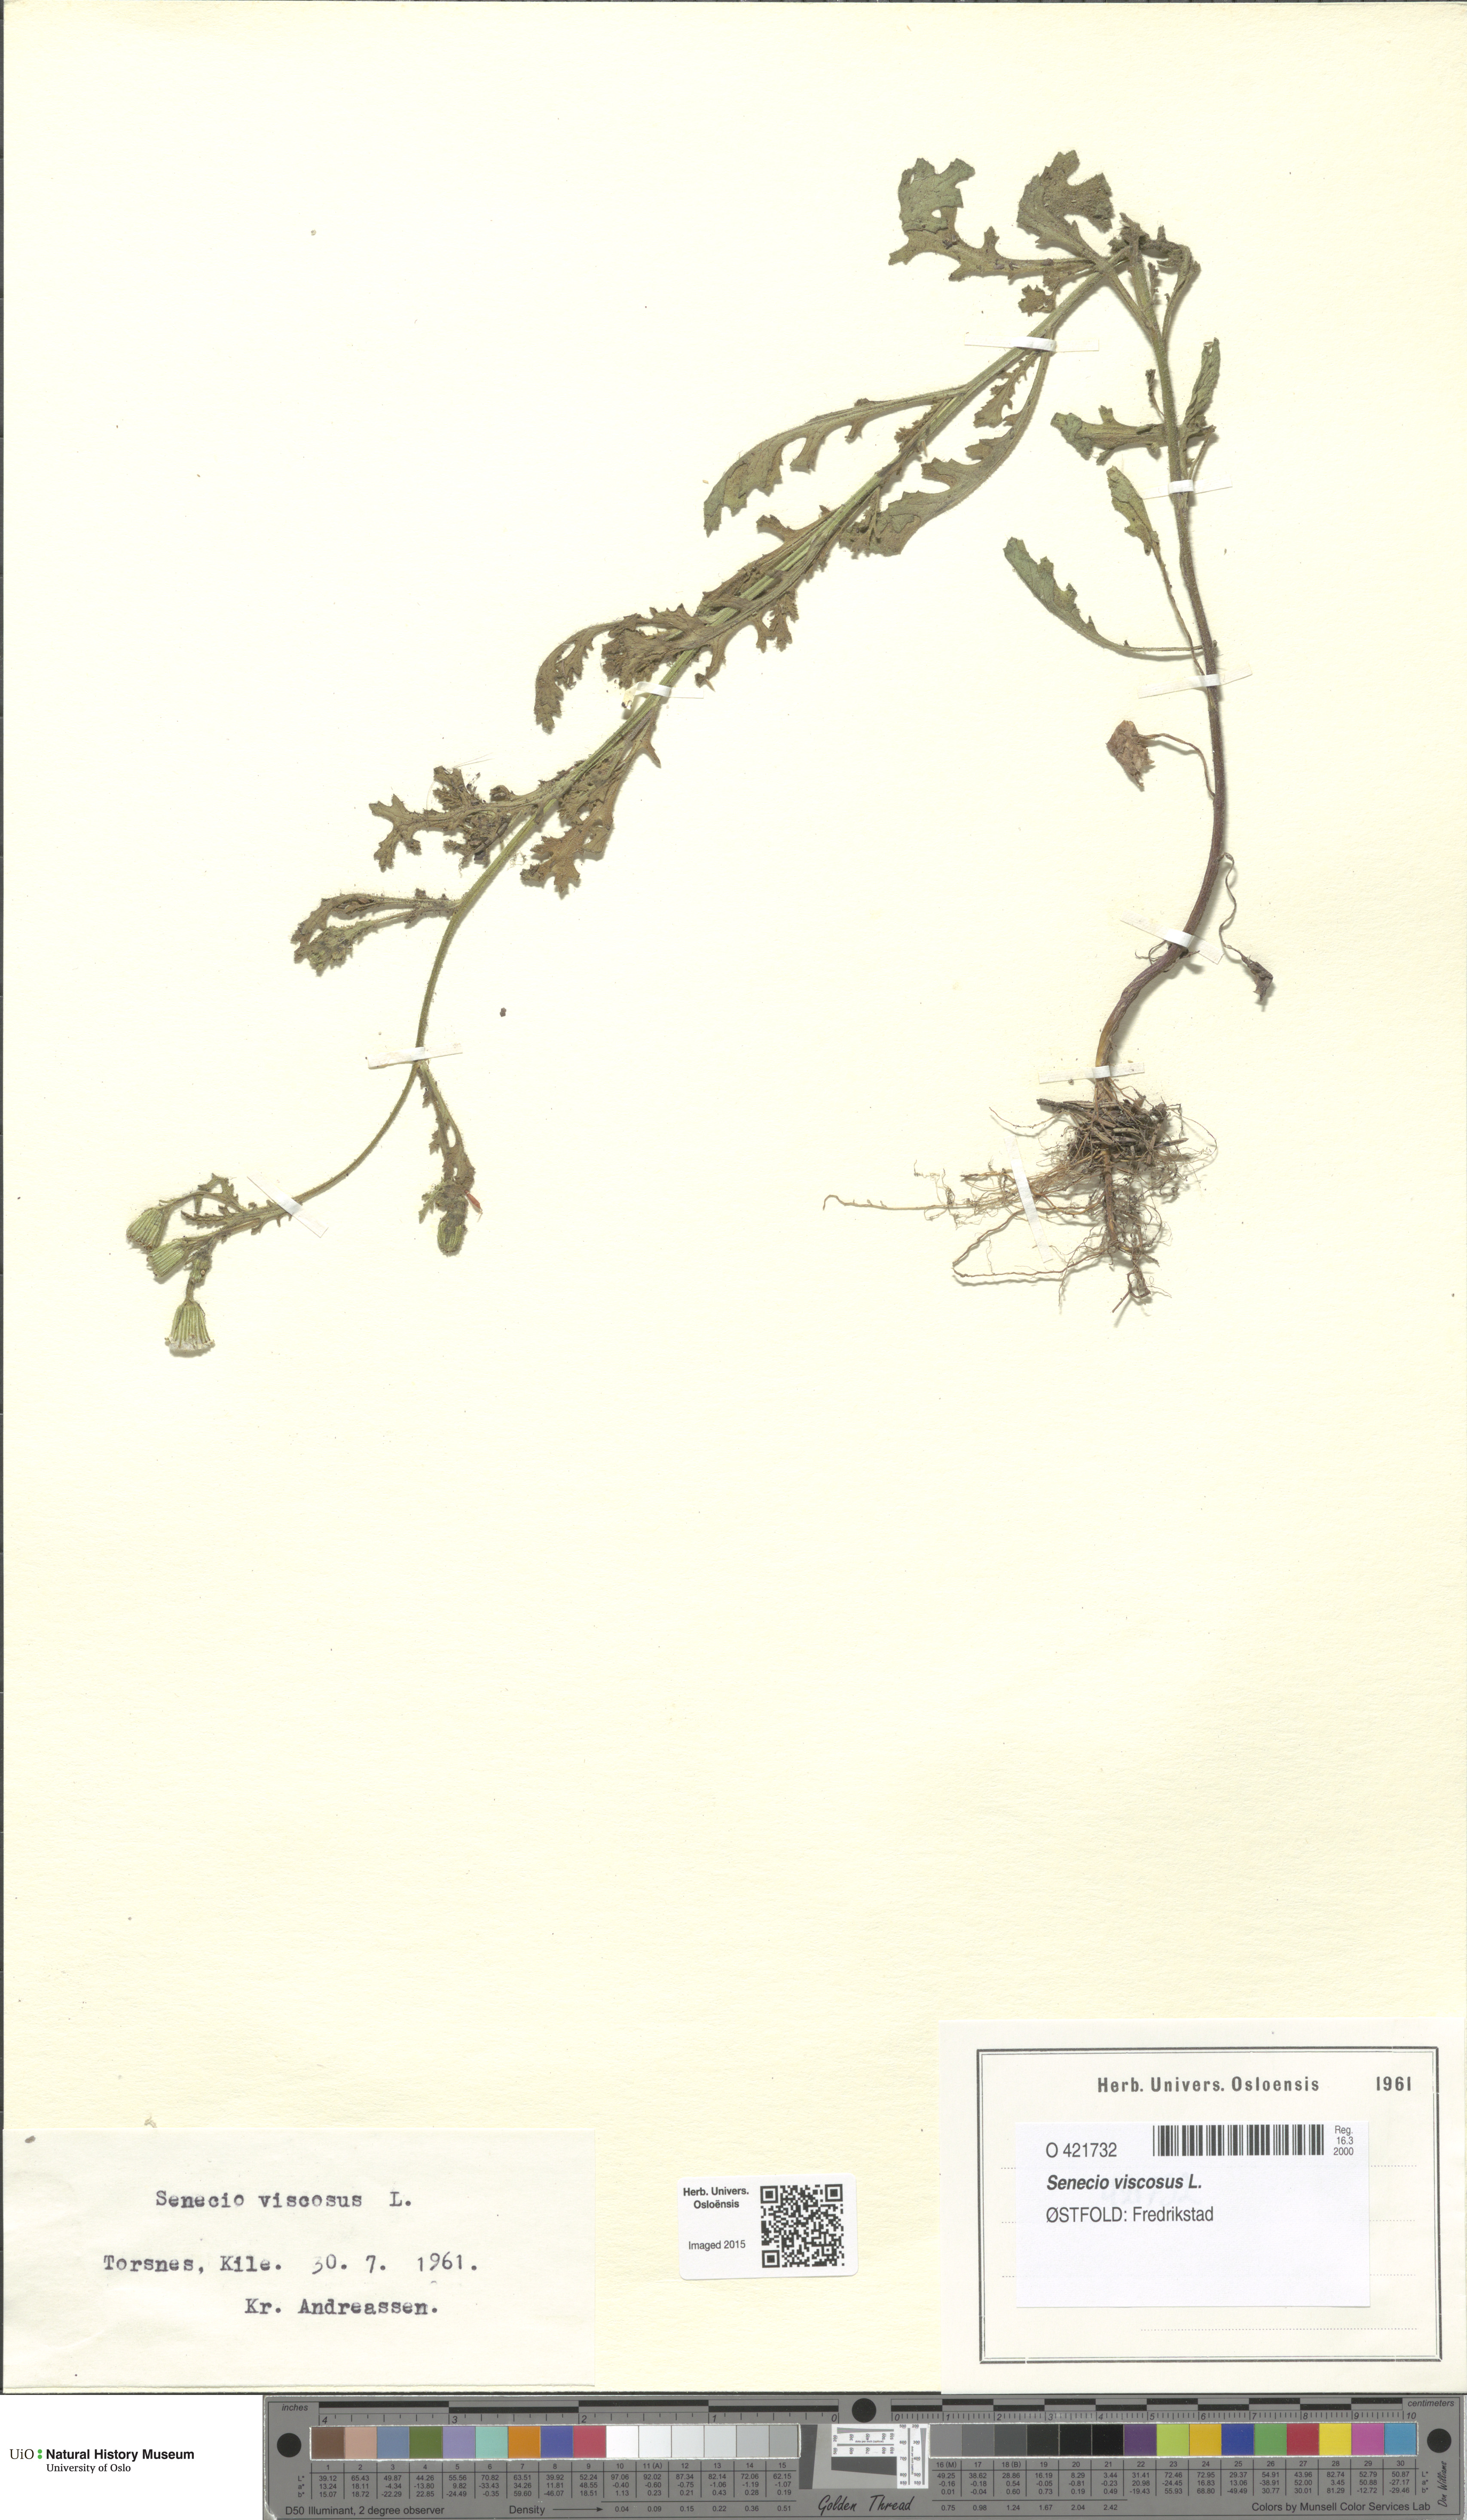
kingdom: Plantae
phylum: Tracheophyta
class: Magnoliopsida
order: Asterales
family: Asteraceae
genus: Senecio
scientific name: Senecio viscosus
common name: Sticky groundsel
